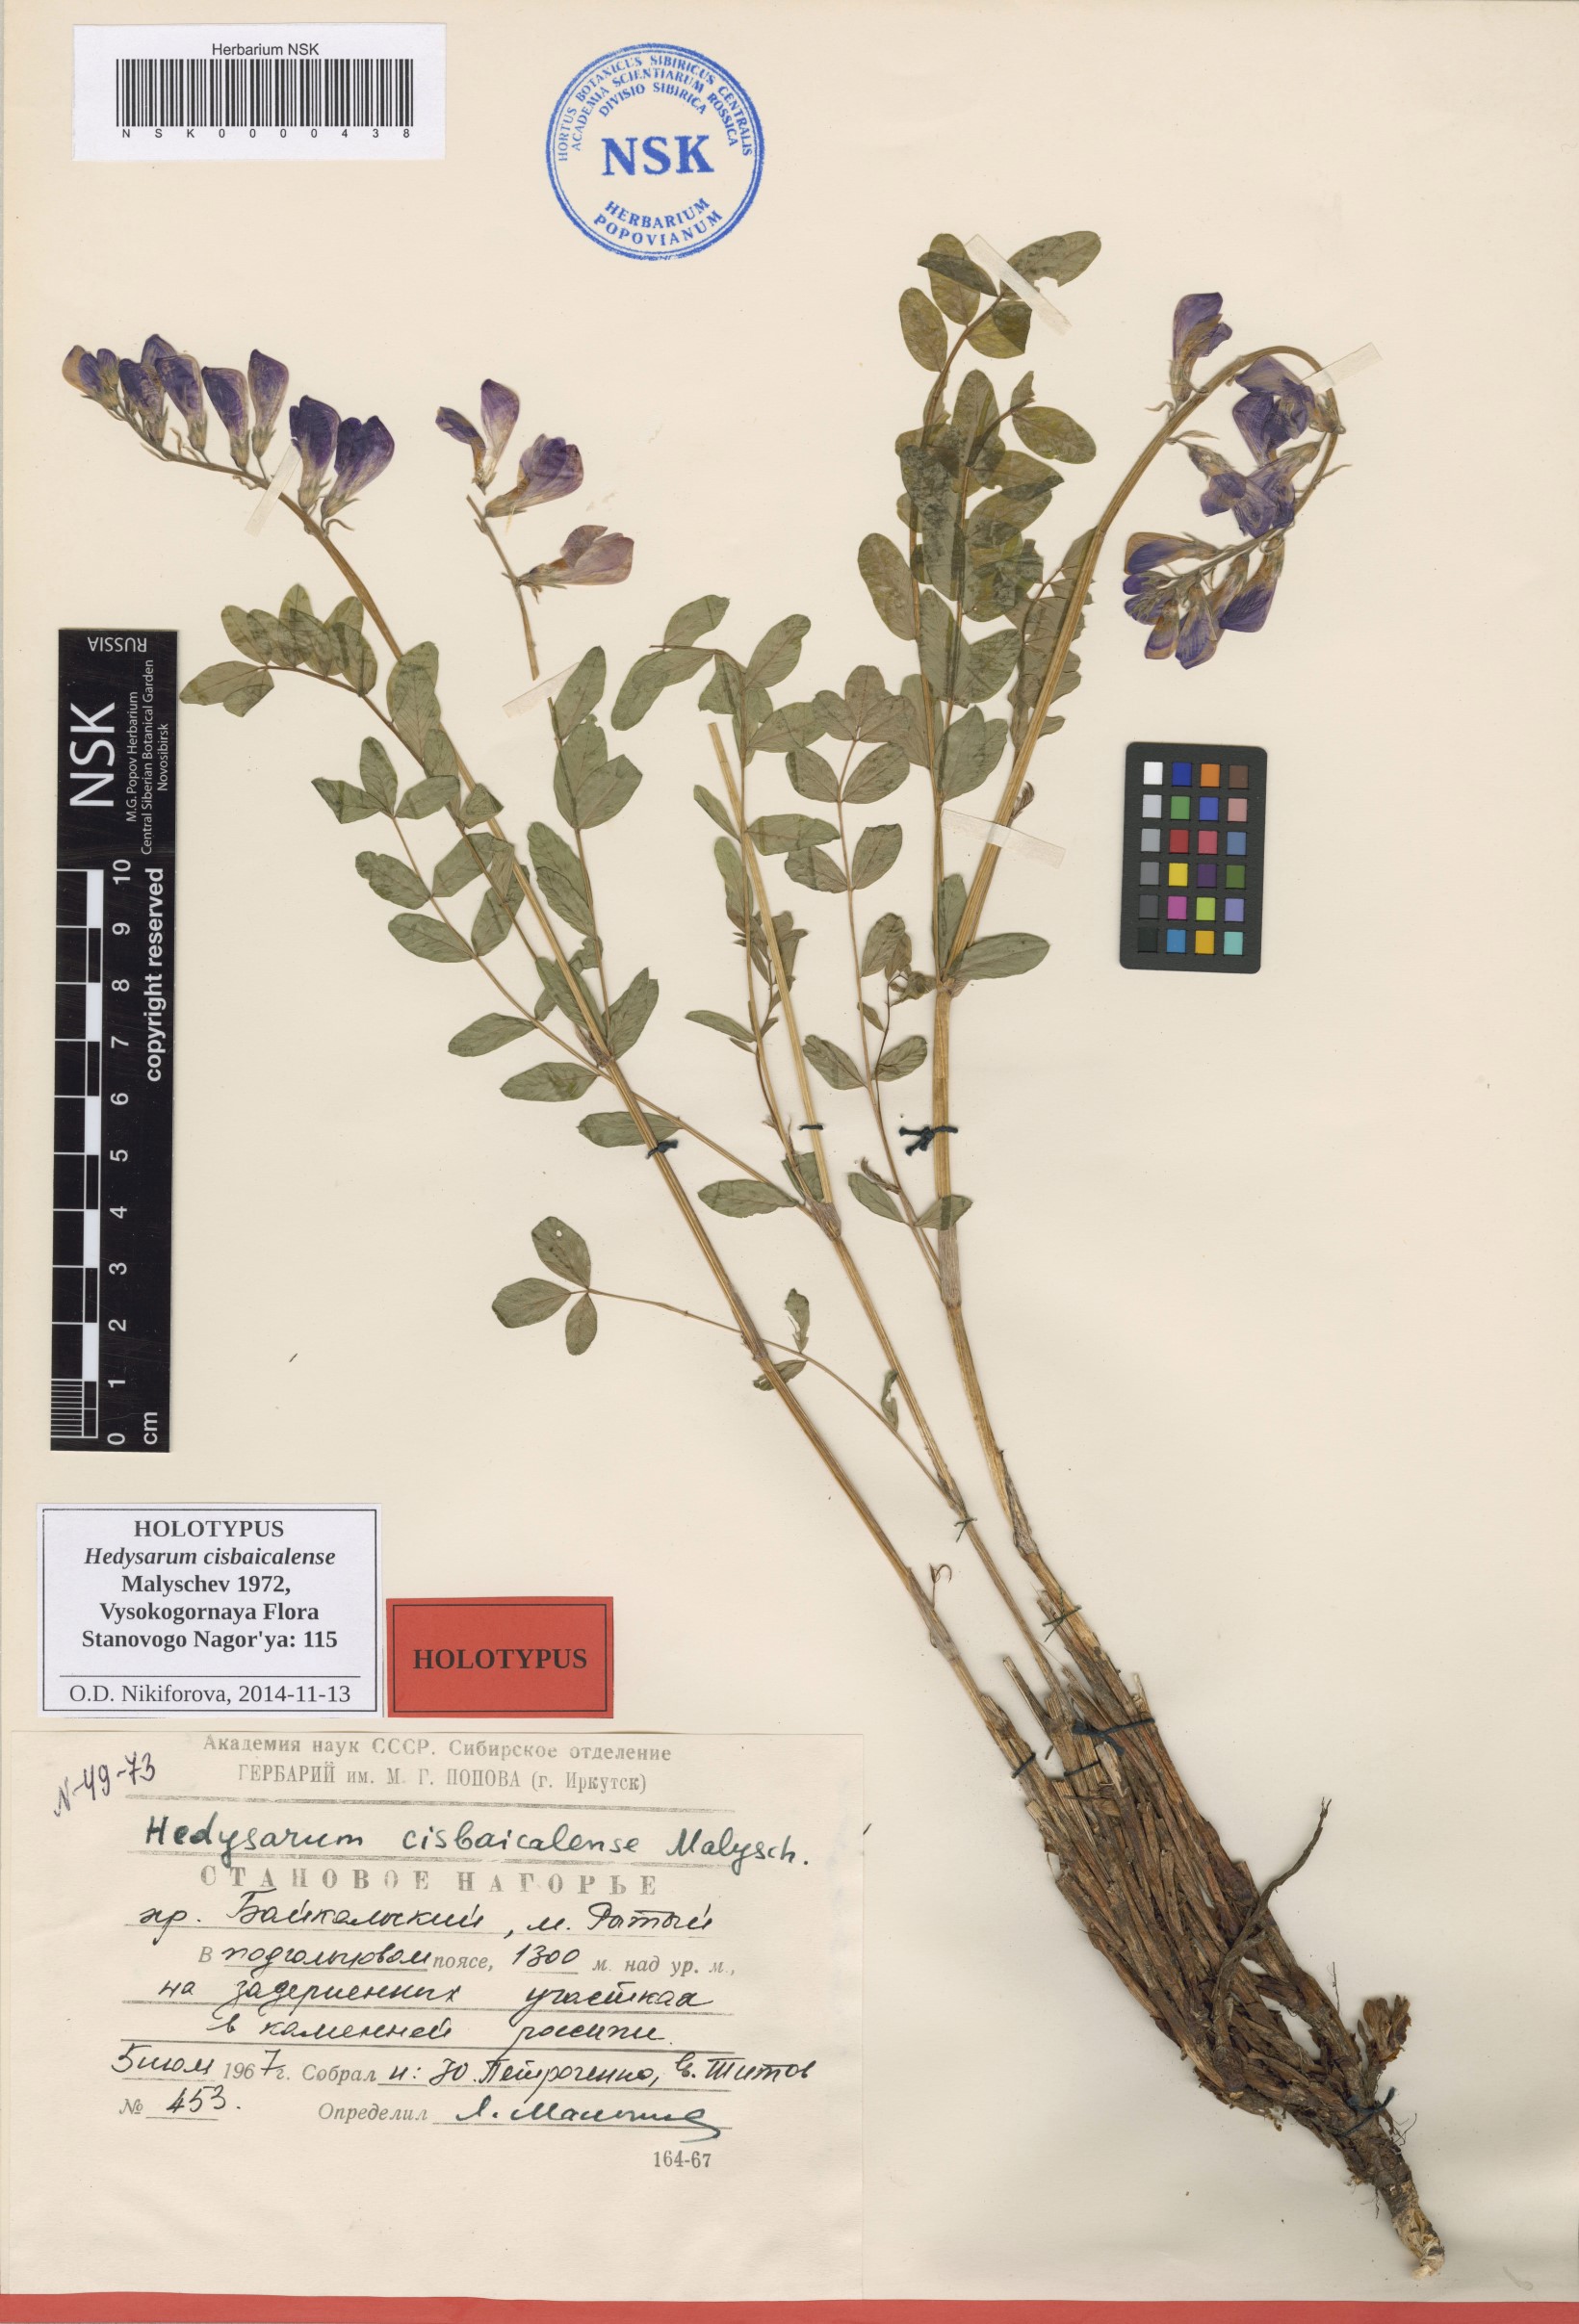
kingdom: Plantae
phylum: Tracheophyta
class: Magnoliopsida
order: Fabales
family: Fabaceae
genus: Hedysarum
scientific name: Hedysarum cisbaicalense
